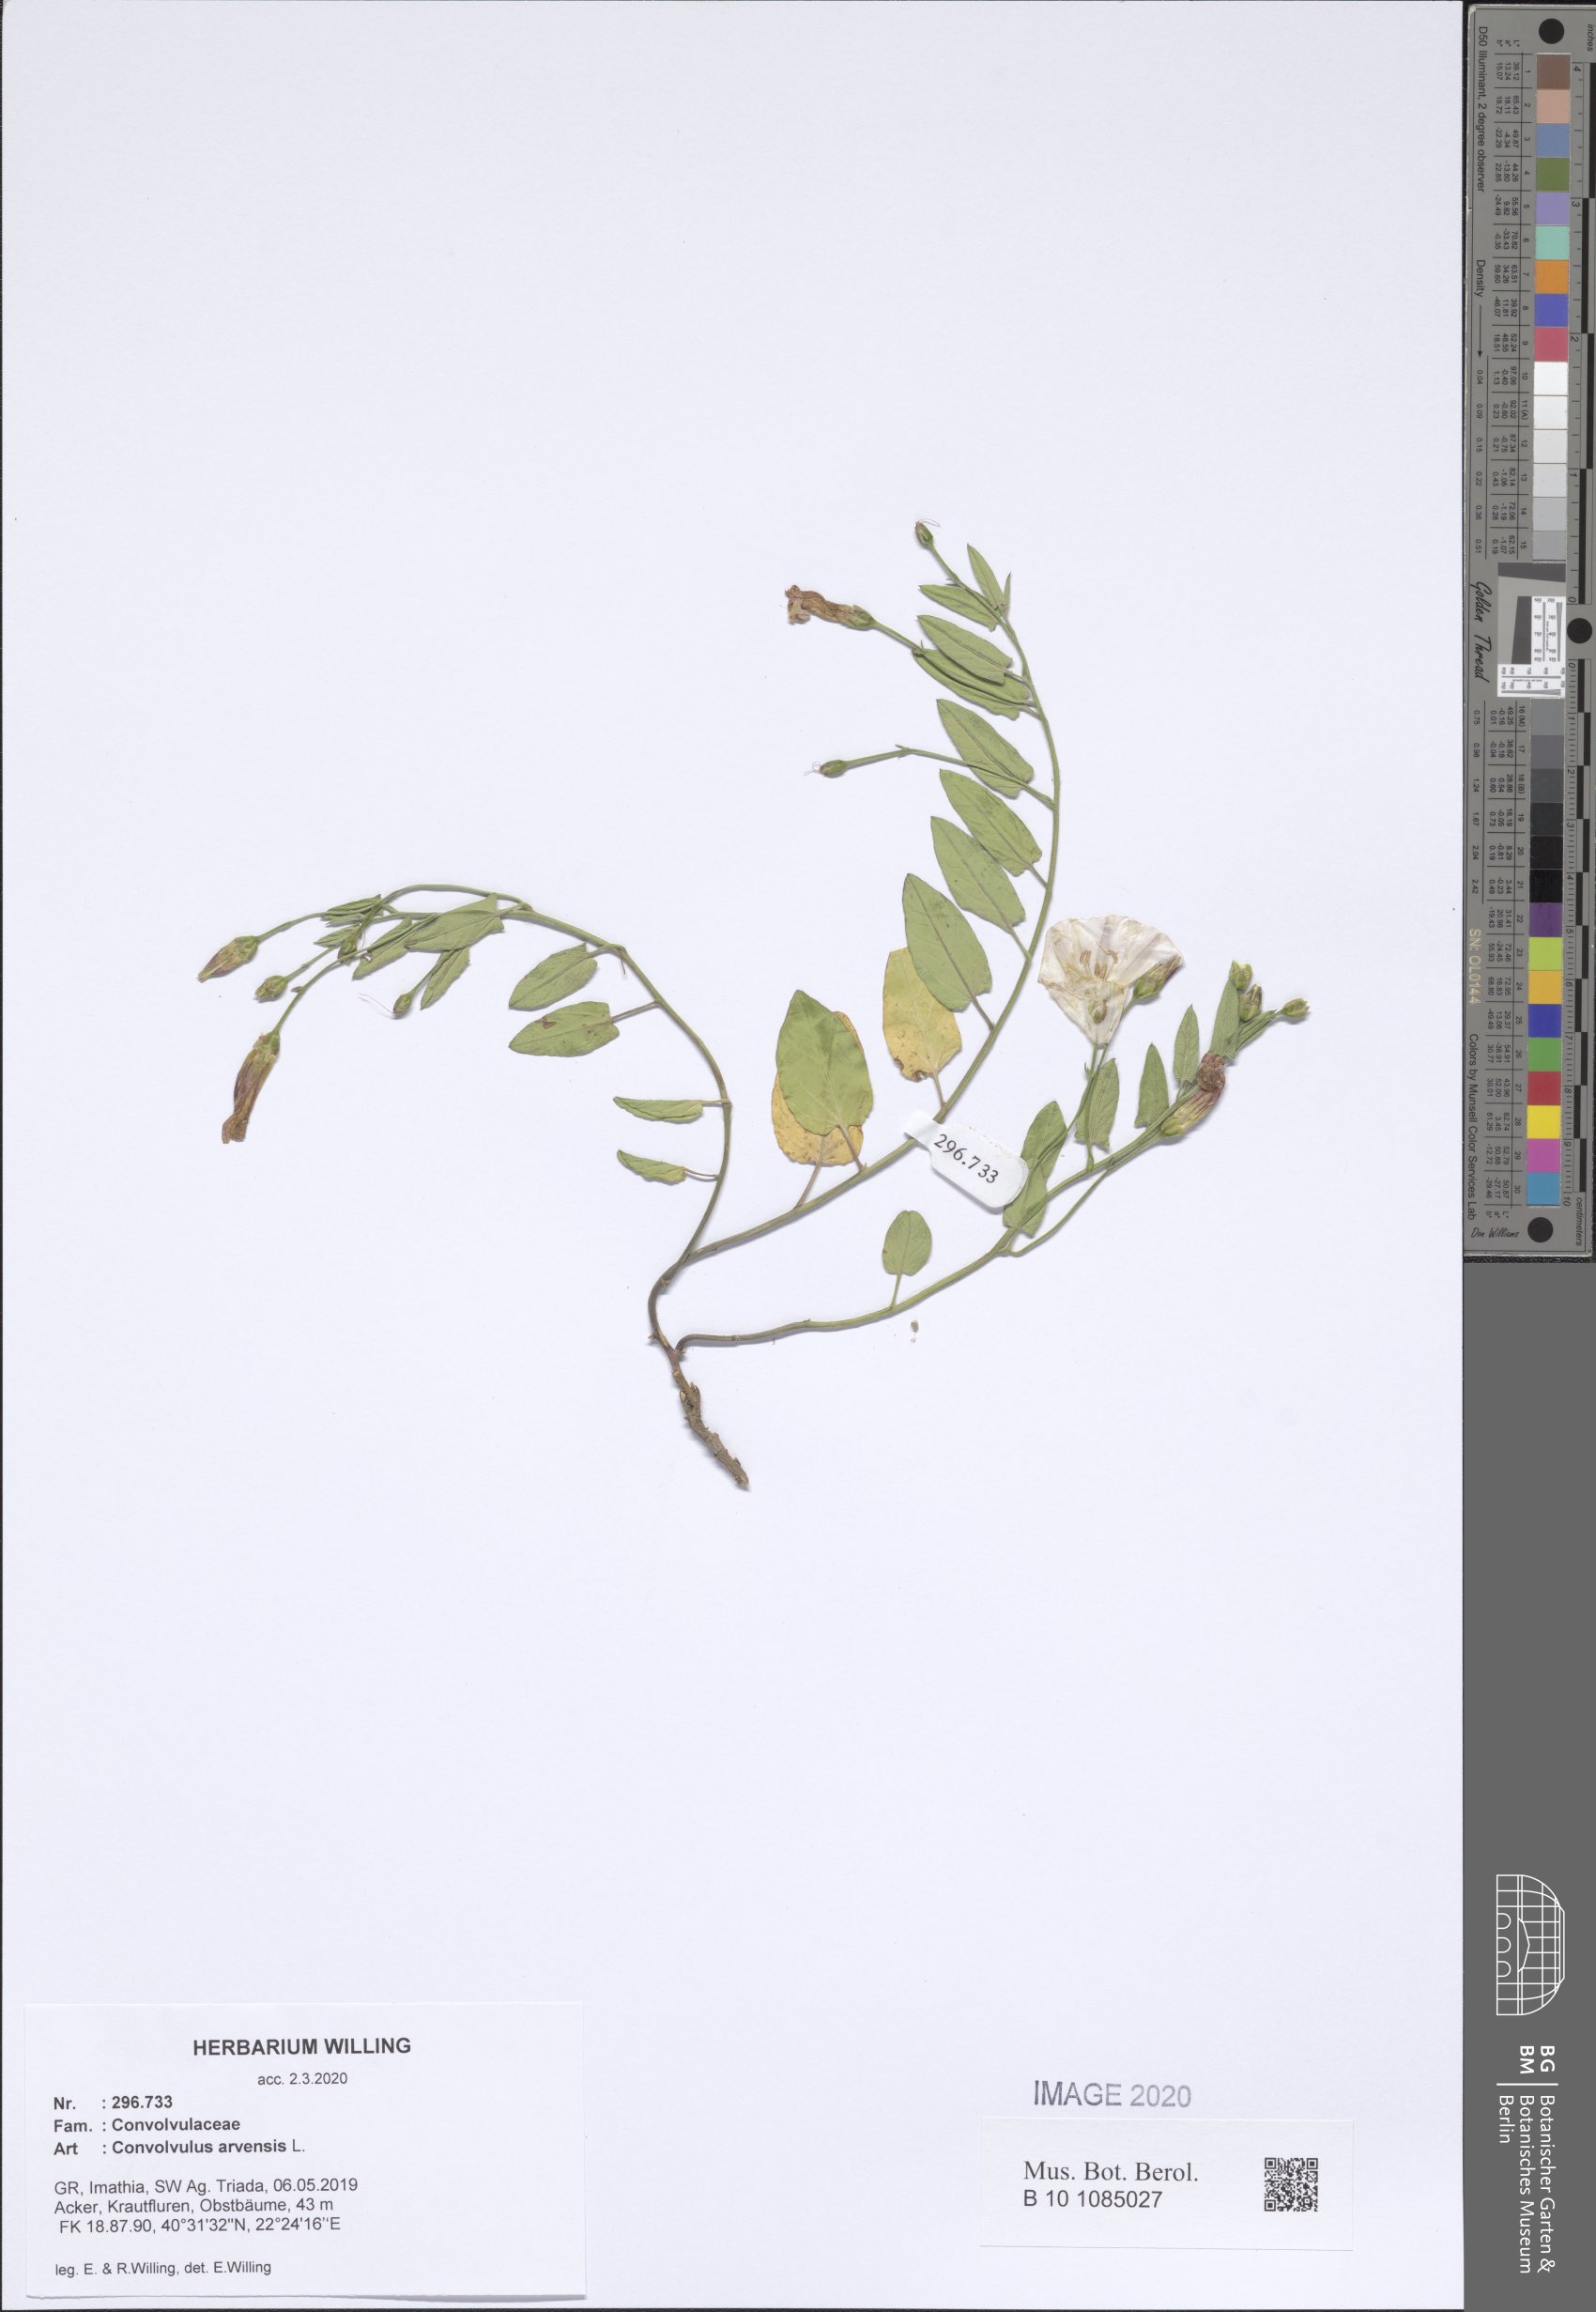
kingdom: Plantae
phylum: Tracheophyta
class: Magnoliopsida
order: Solanales
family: Convolvulaceae
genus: Convolvulus
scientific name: Convolvulus arvensis
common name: Field bindweed
